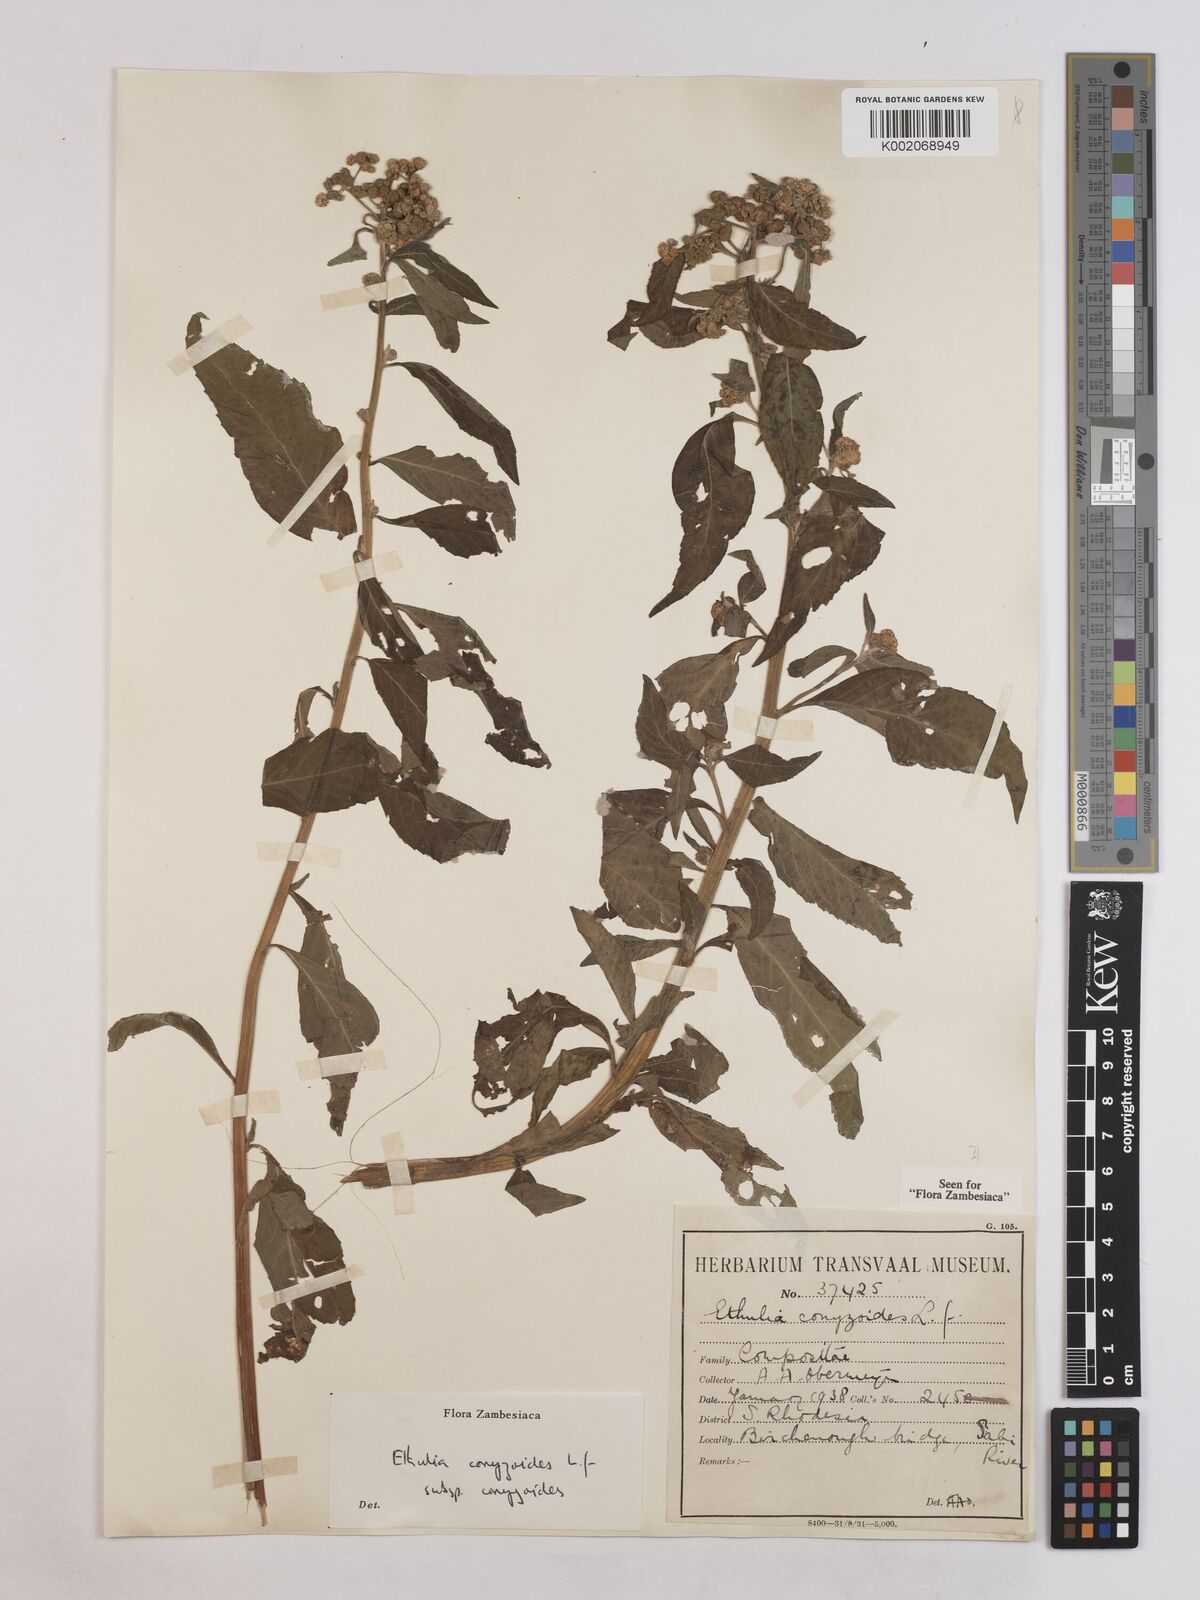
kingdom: Plantae
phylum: Tracheophyta
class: Magnoliopsida
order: Asterales
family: Asteraceae
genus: Ethulia
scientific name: Ethulia conyzoides
